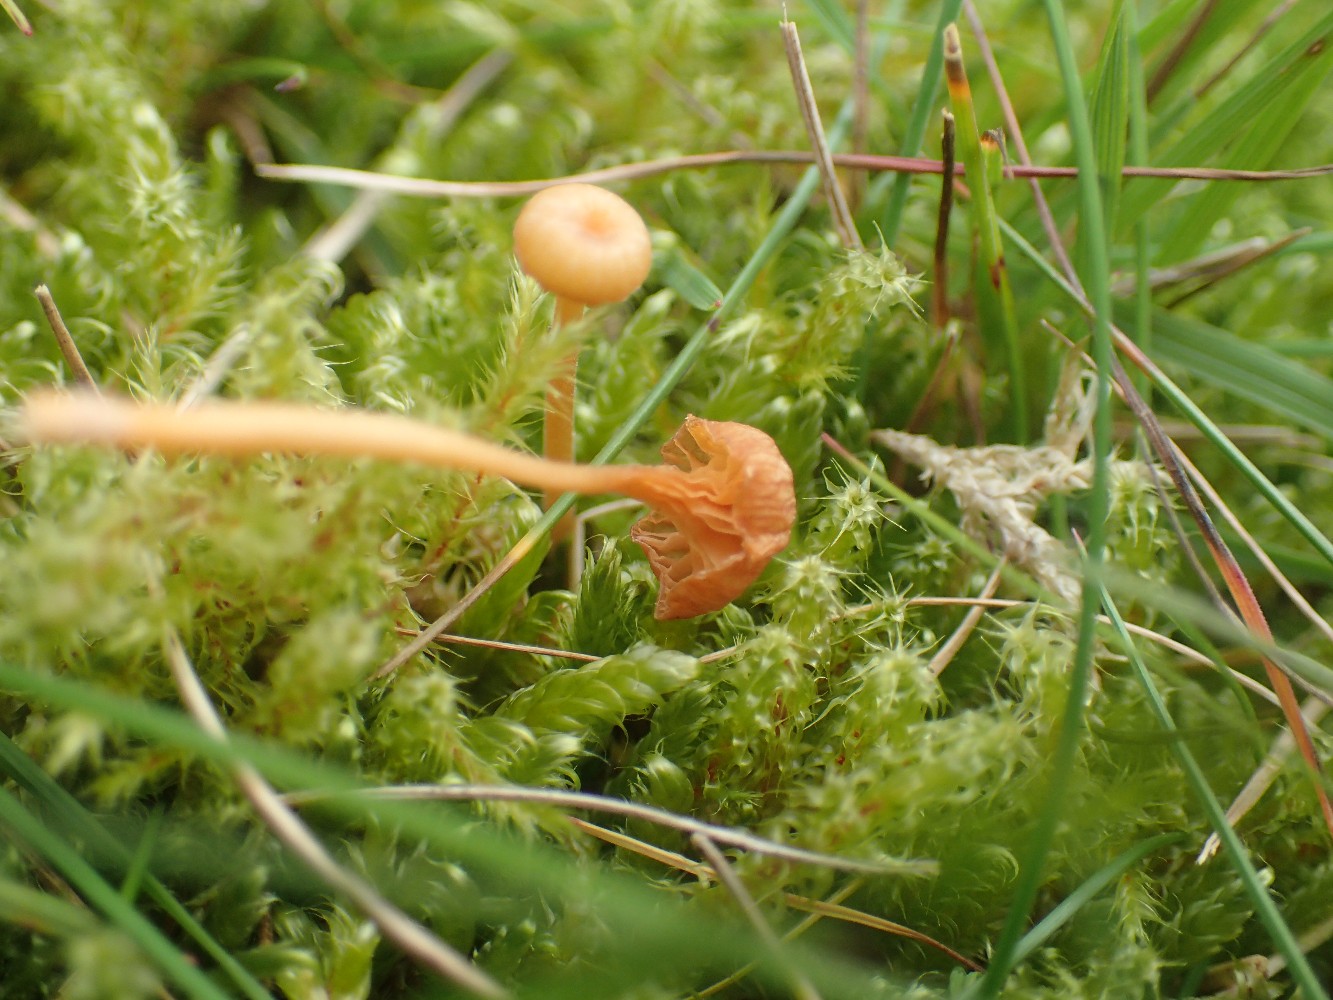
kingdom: Fungi
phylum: Basidiomycota
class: Agaricomycetes
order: Hymenochaetales
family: Rickenellaceae
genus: Rickenella
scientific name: Rickenella fibula
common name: orange mosnavlehat
